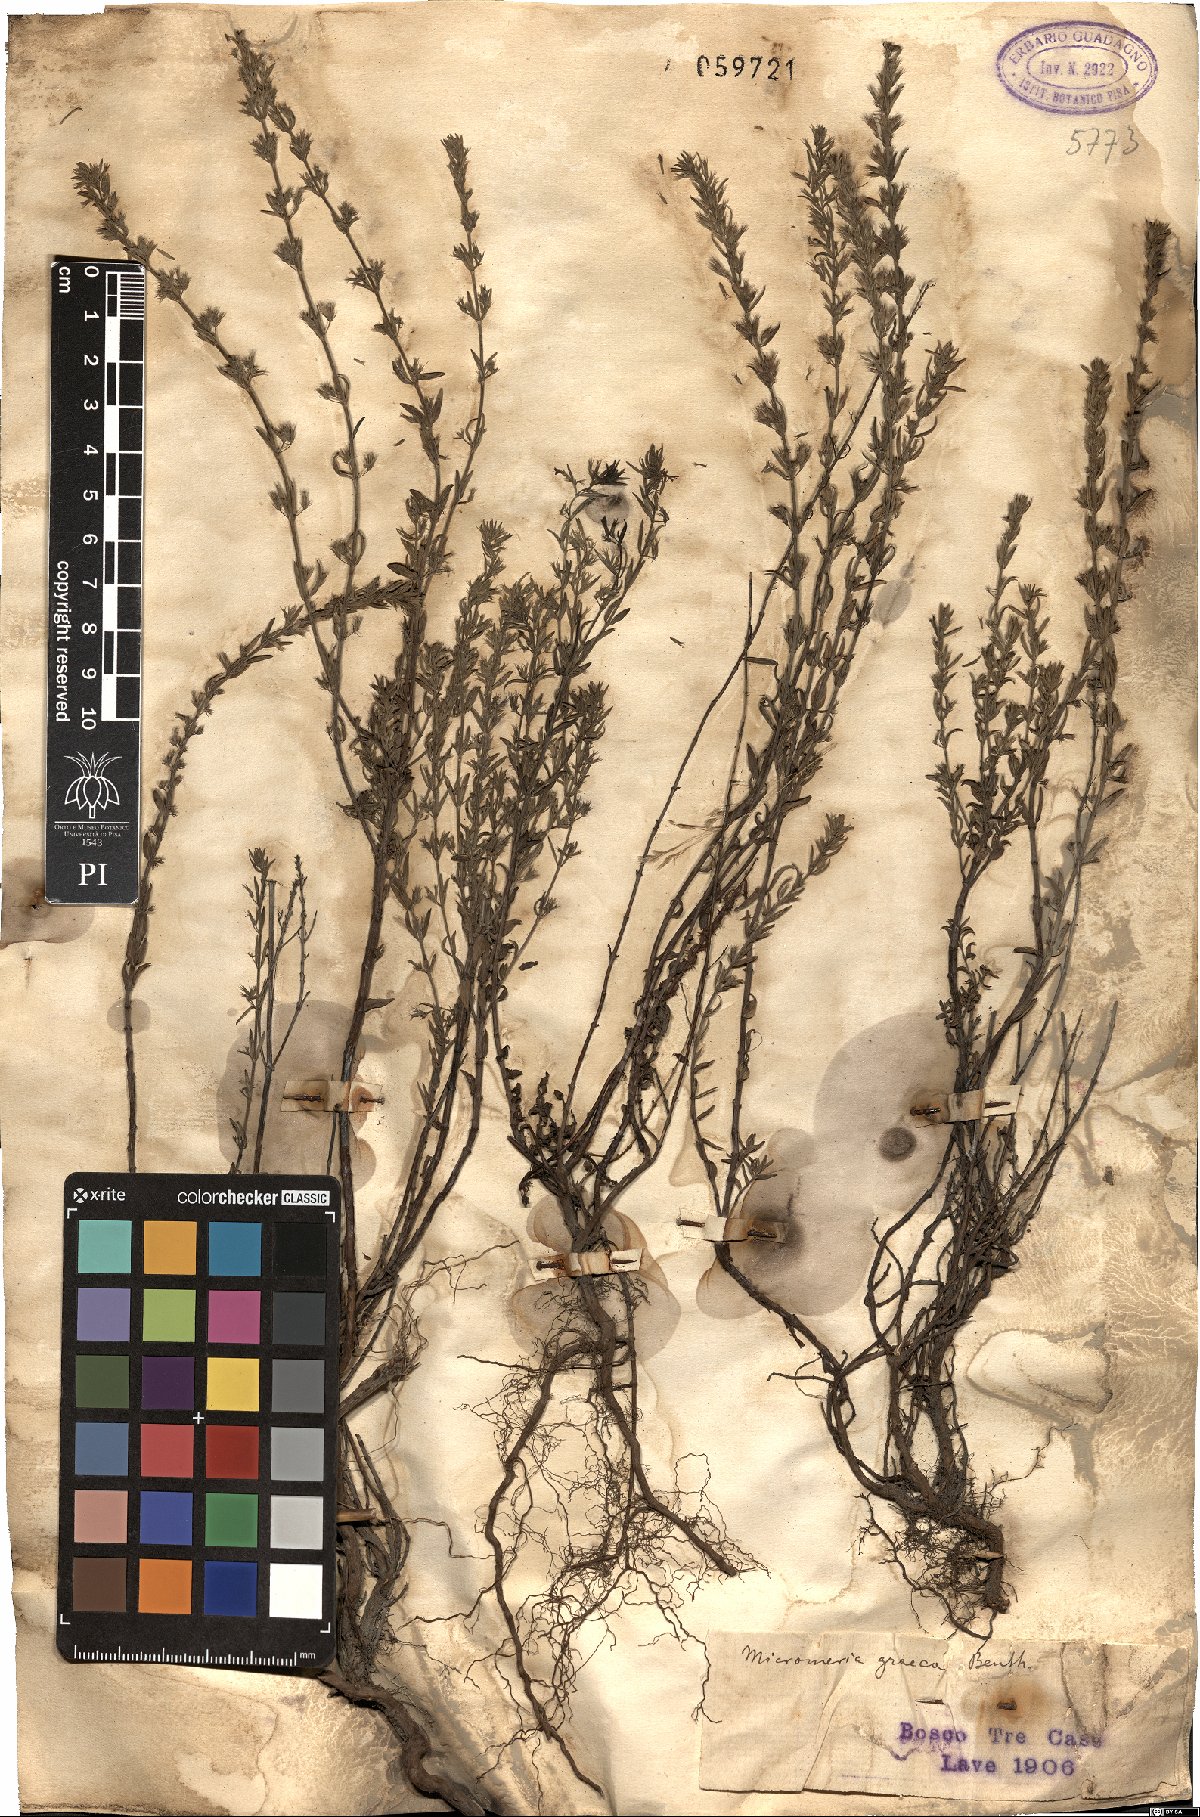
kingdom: Plantae
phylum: Tracheophyta
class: Magnoliopsida
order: Lamiales
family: Lamiaceae
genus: Micromeria
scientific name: Micromeria graeca
